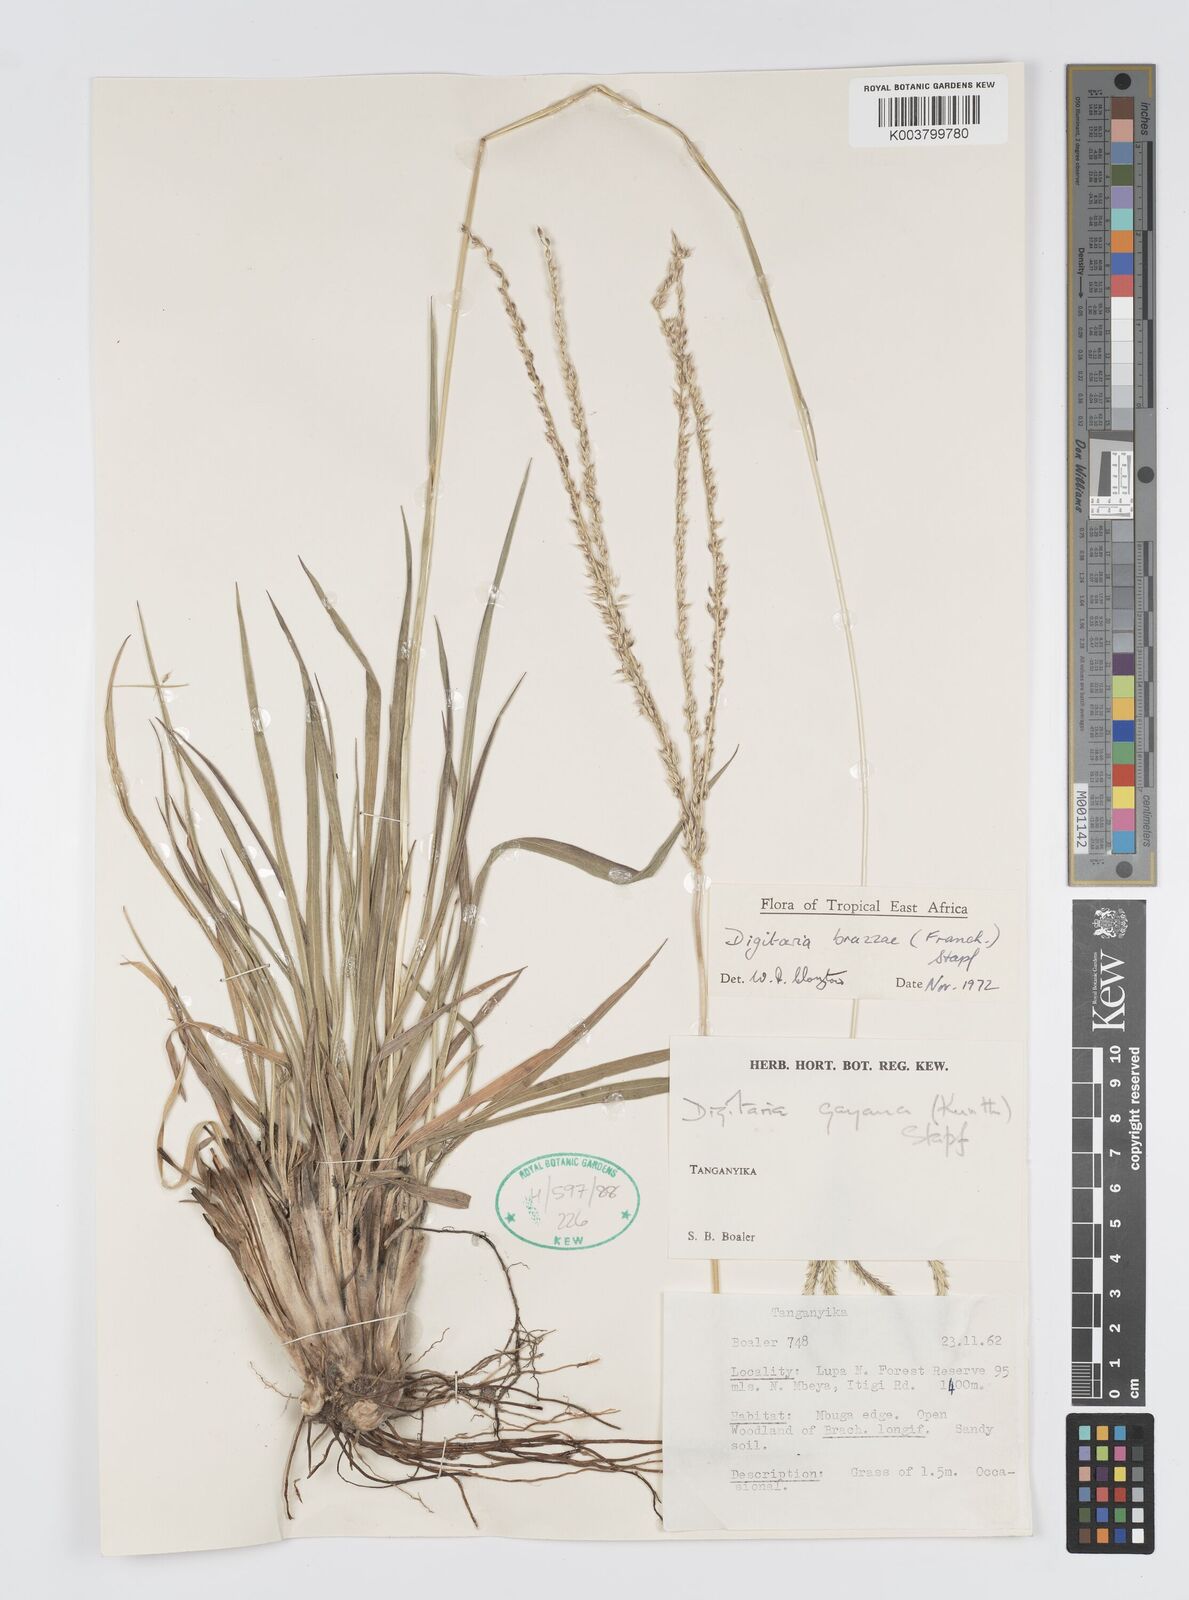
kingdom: Plantae
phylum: Tracheophyta
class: Liliopsida
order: Poales
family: Poaceae
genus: Digitaria
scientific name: Digitaria brazzae
